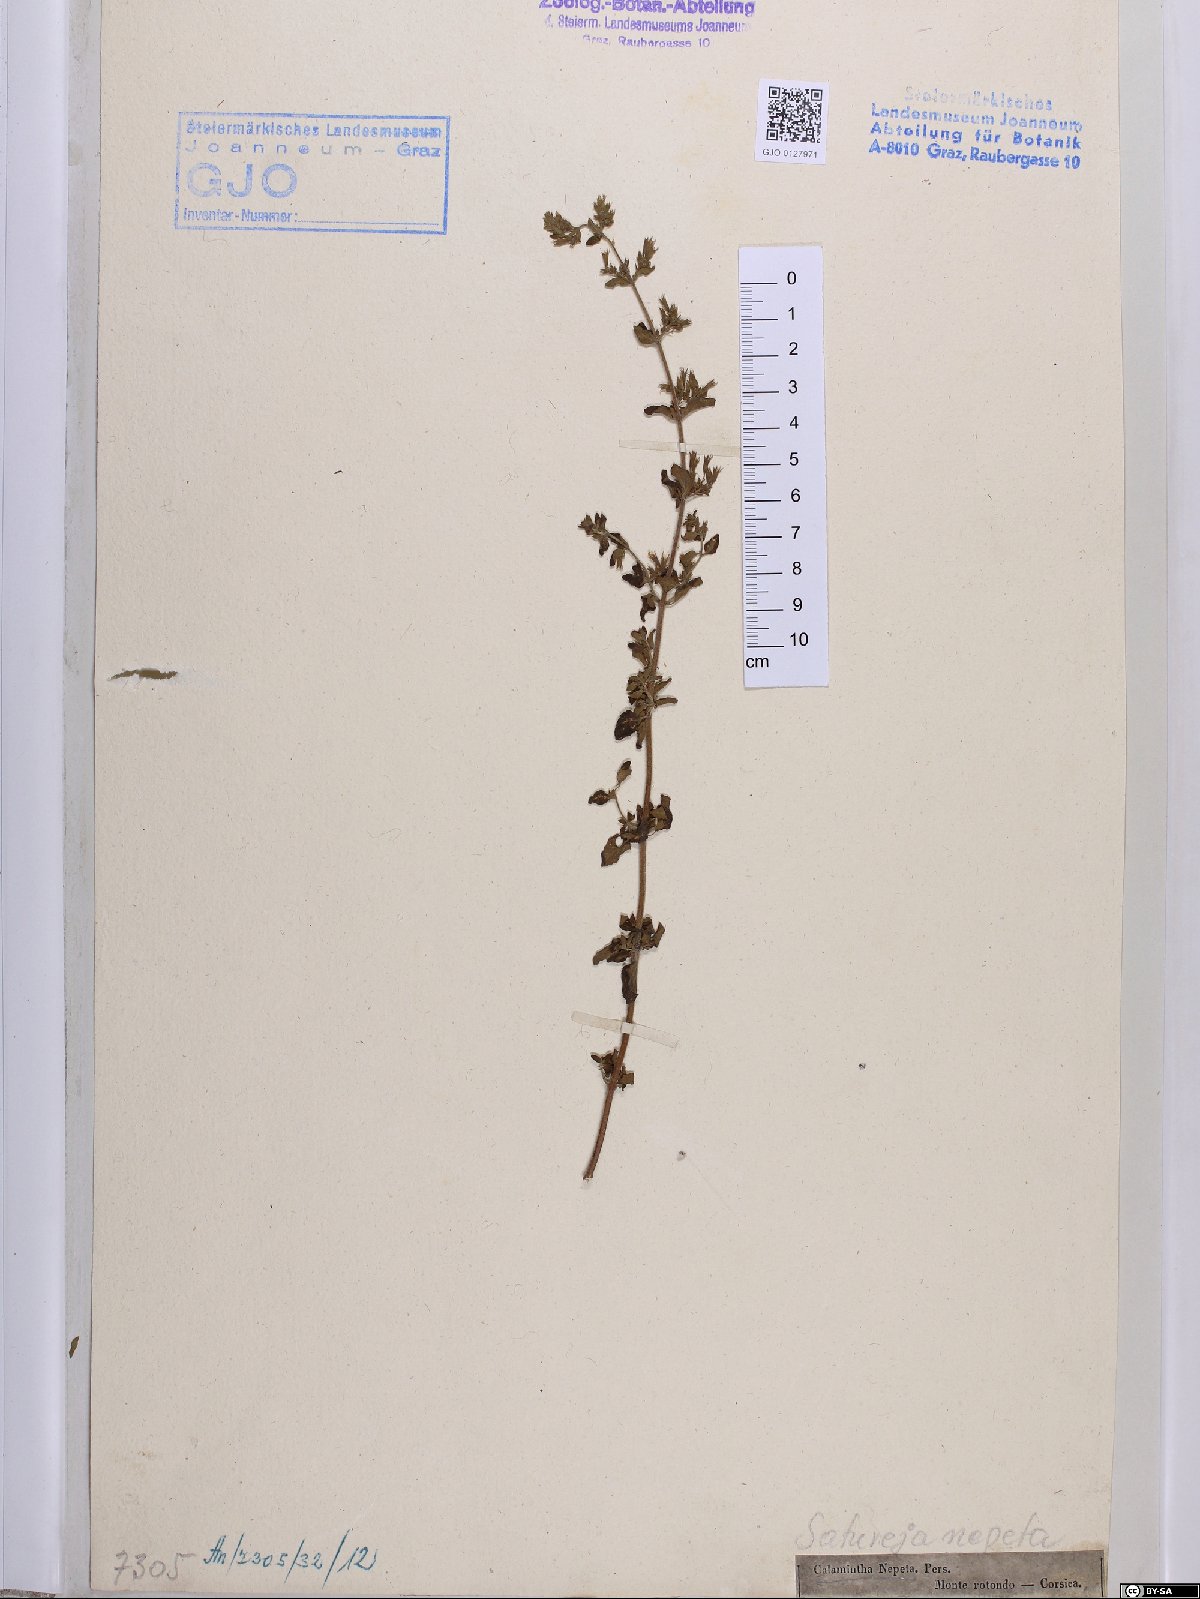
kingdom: Plantae
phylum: Tracheophyta
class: Magnoliopsida
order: Lamiales
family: Lamiaceae
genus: Clinopodium
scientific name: Clinopodium nepeta
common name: Lesser calamint
